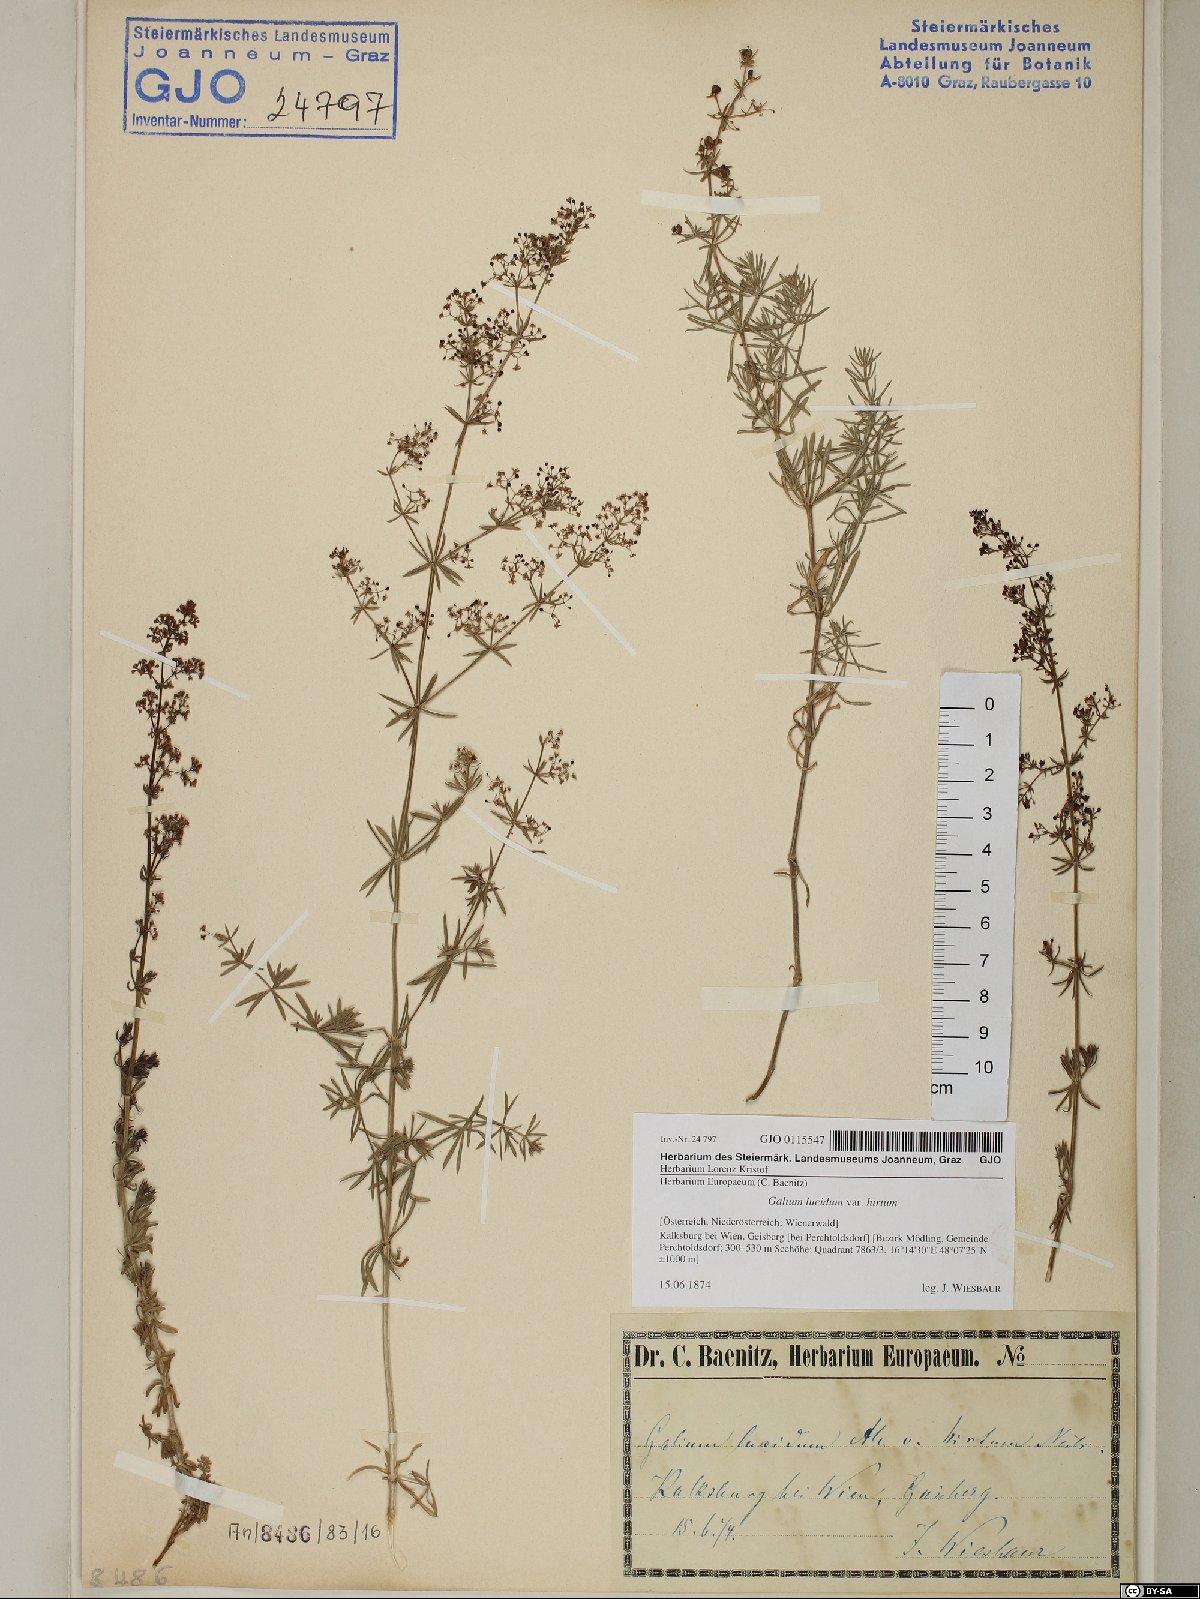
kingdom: Plantae
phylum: Tracheophyta
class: Magnoliopsida
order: Gentianales
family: Rubiaceae
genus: Galium
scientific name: Galium lucidum
